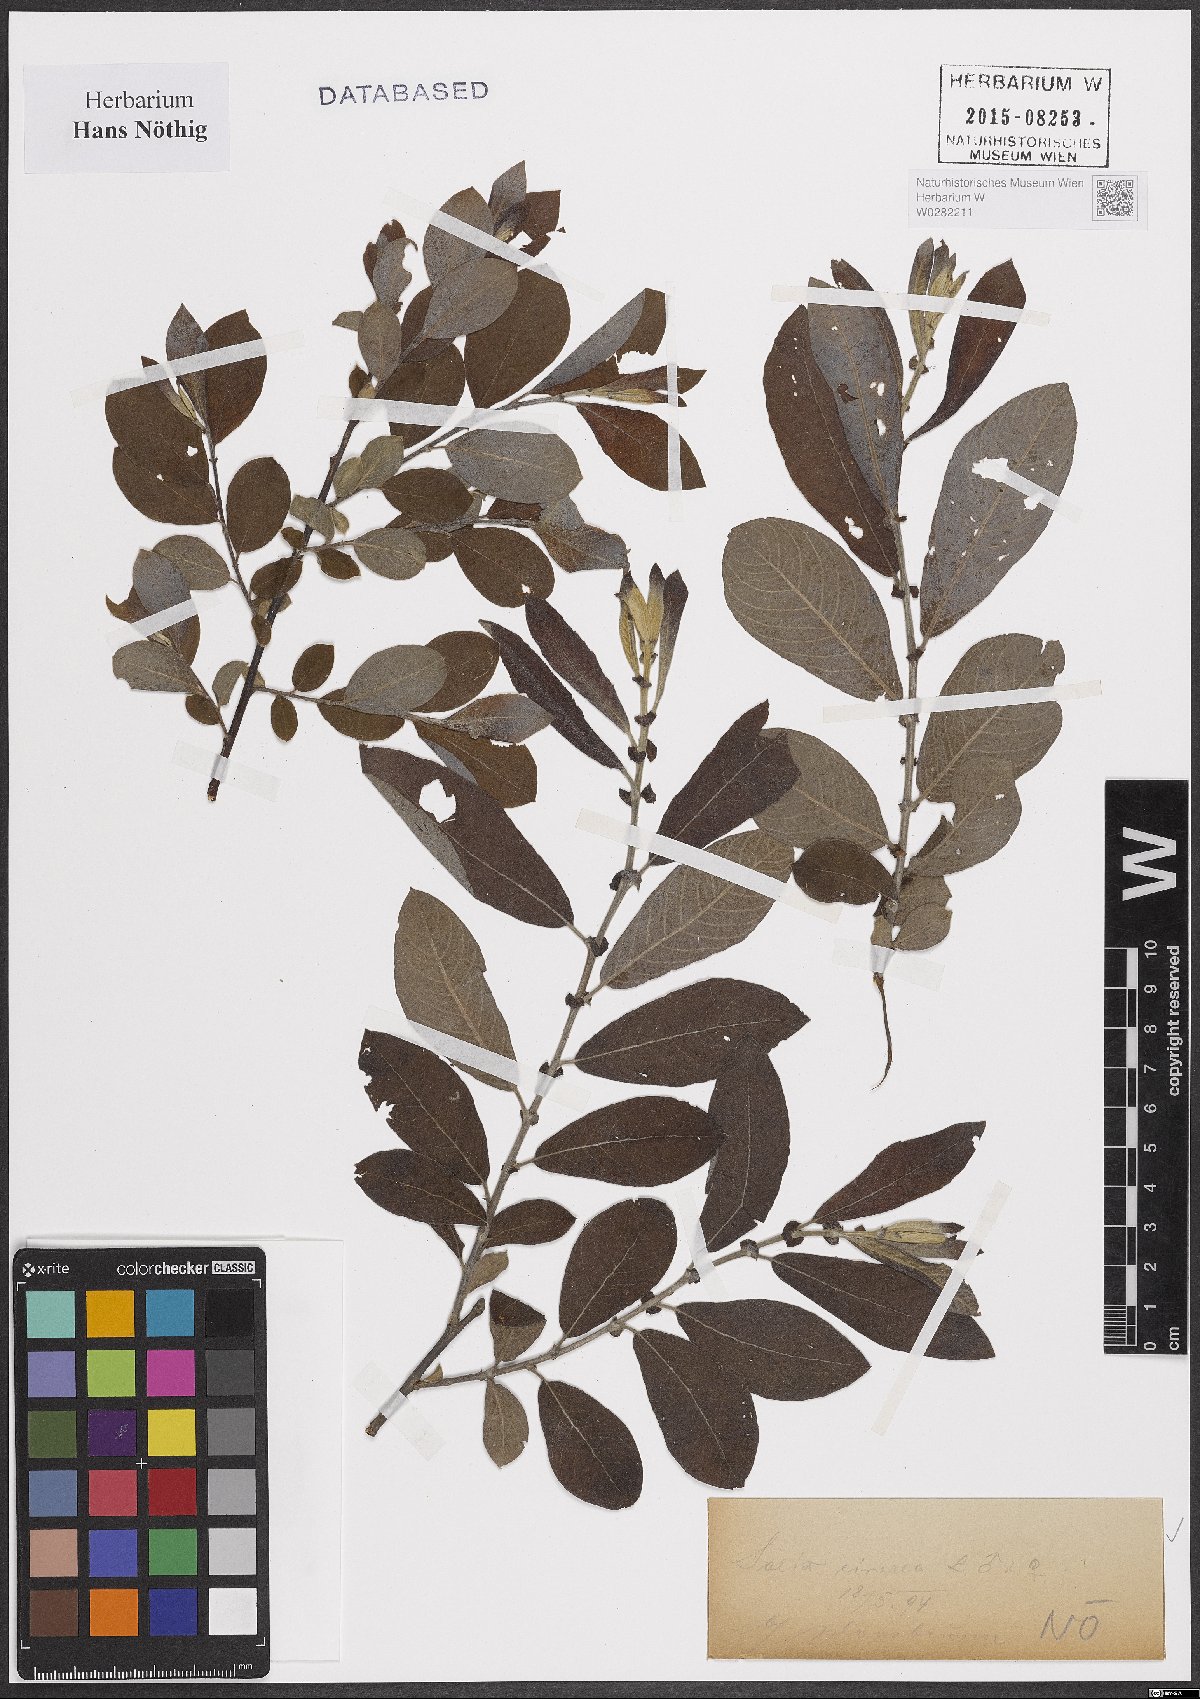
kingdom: Plantae
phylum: Tracheophyta
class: Magnoliopsida
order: Malpighiales
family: Salicaceae
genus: Salix
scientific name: Salix cinerea
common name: Common sallow
